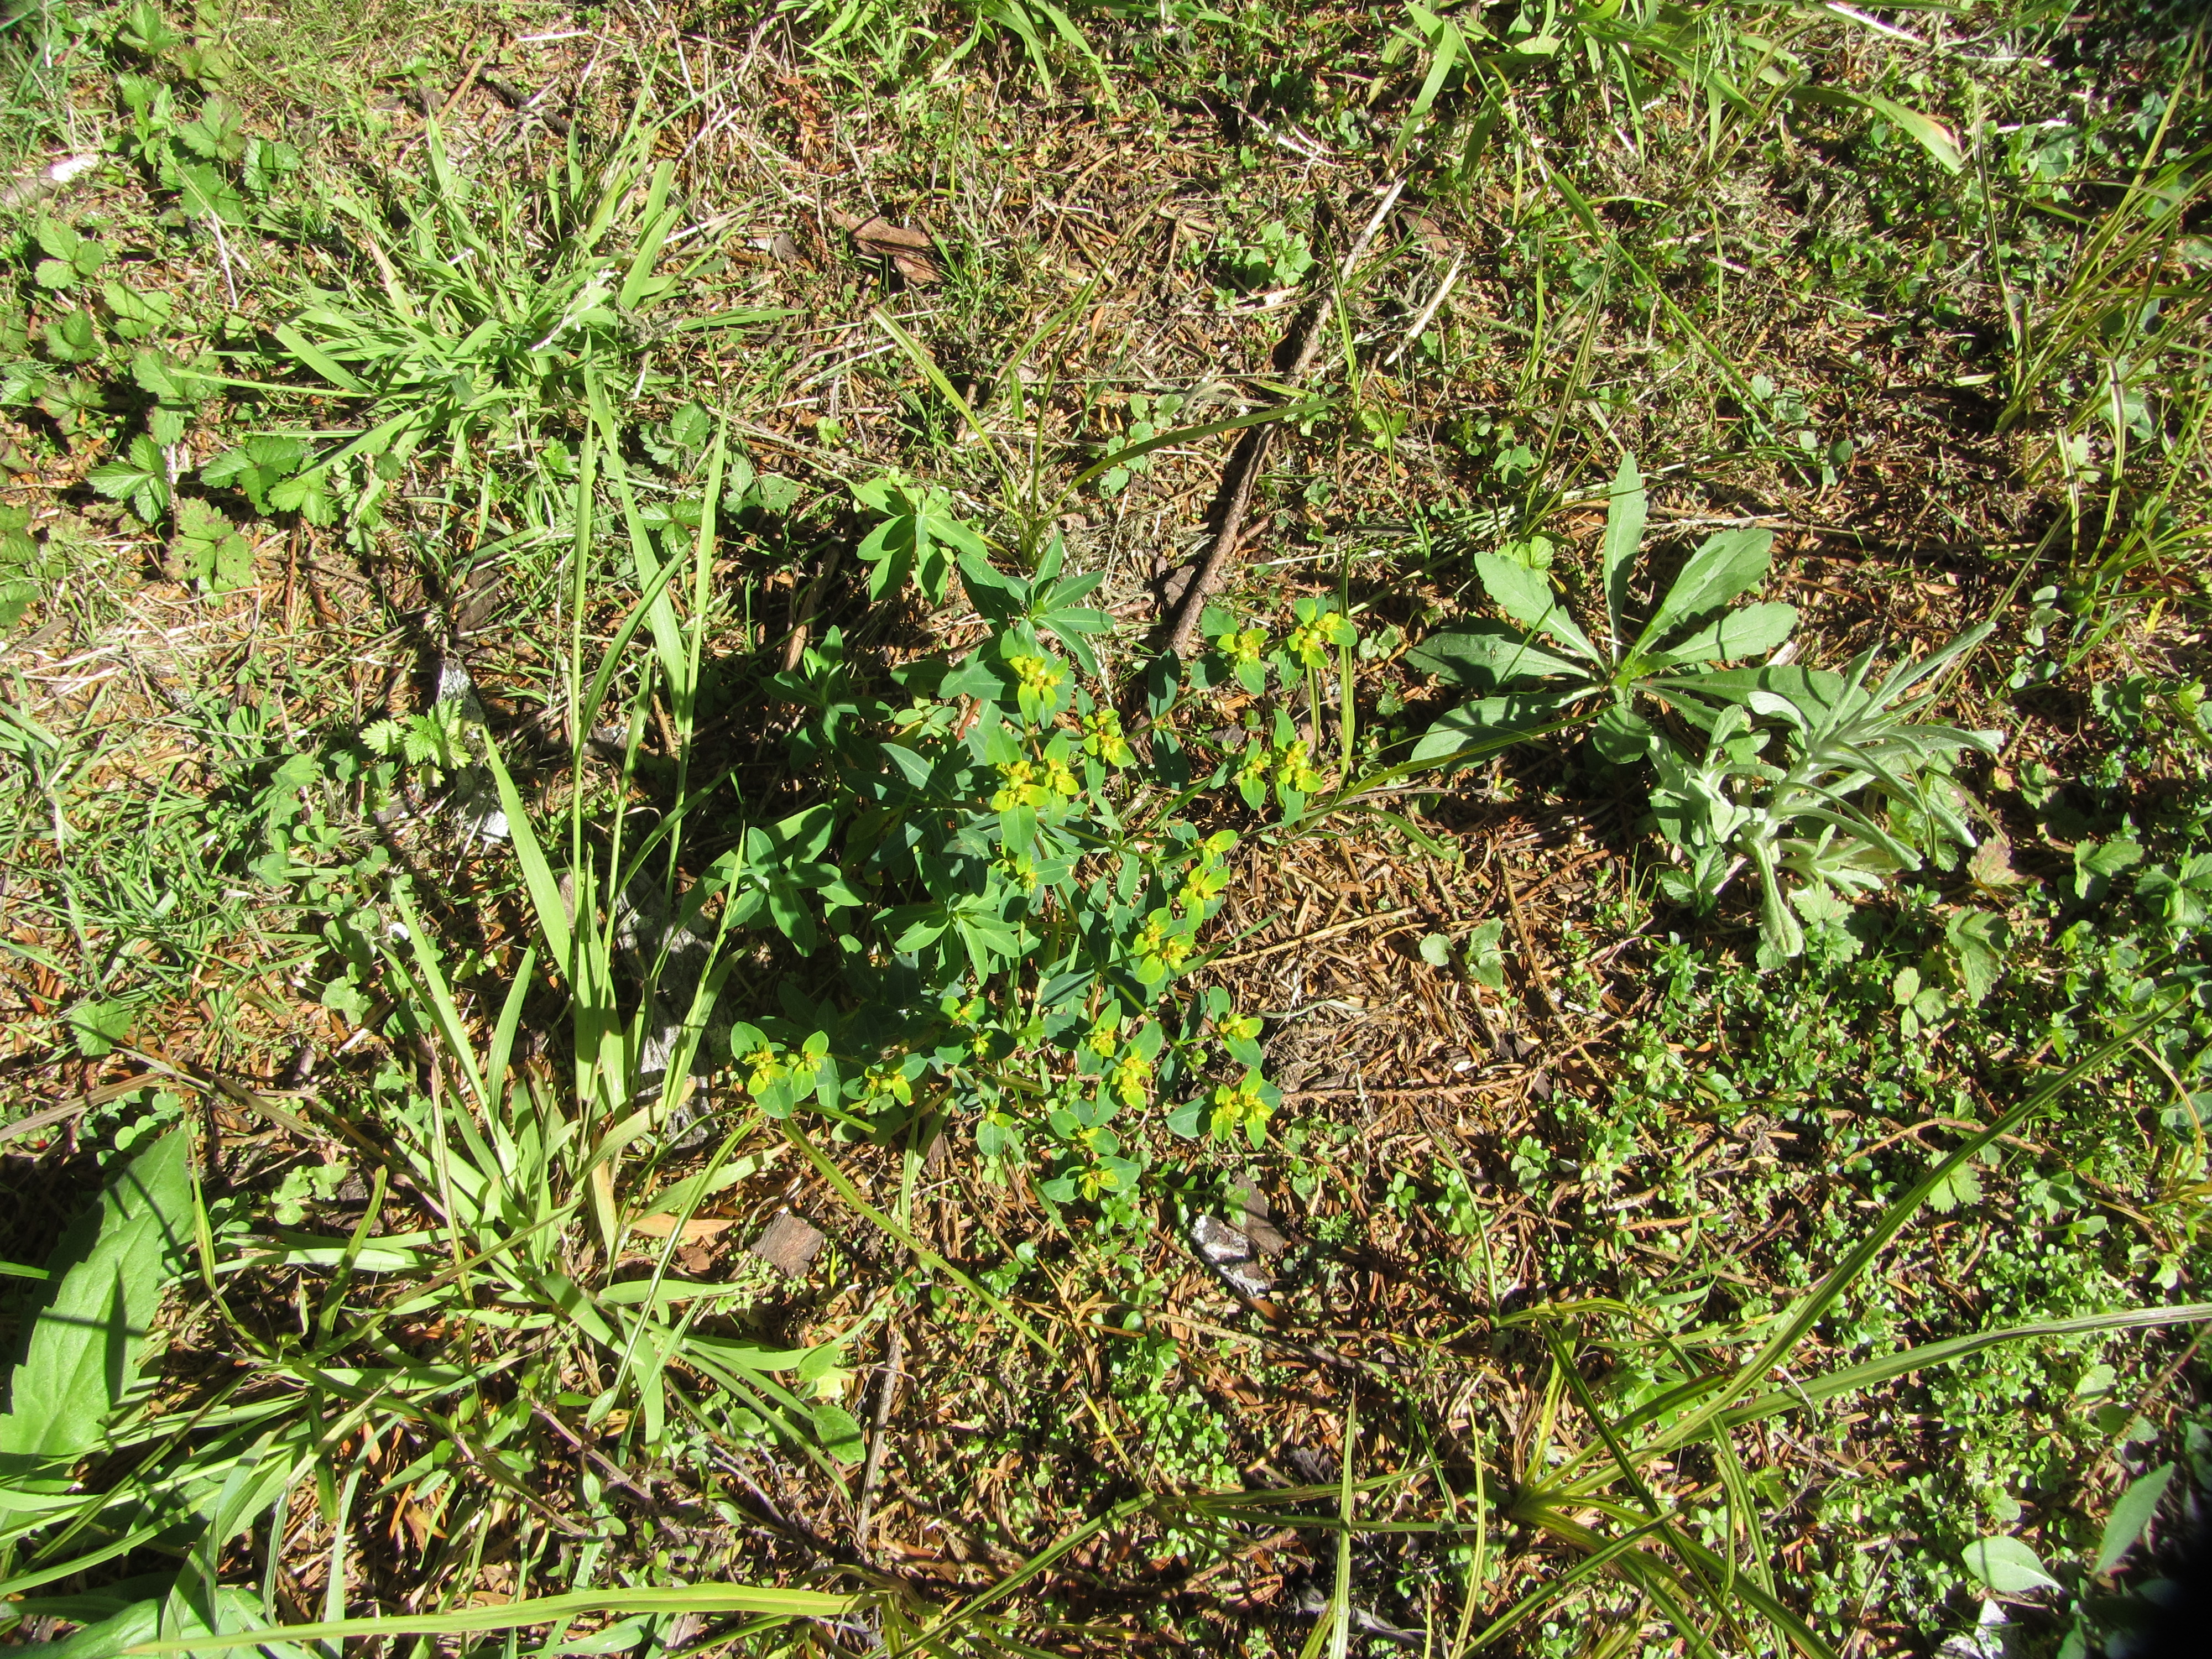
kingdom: Plantae
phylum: Tracheophyta
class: Magnoliopsida
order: Malpighiales
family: Euphorbiaceae
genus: Euphorbia
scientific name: Euphorbia oblongata
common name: Balkan spurge
